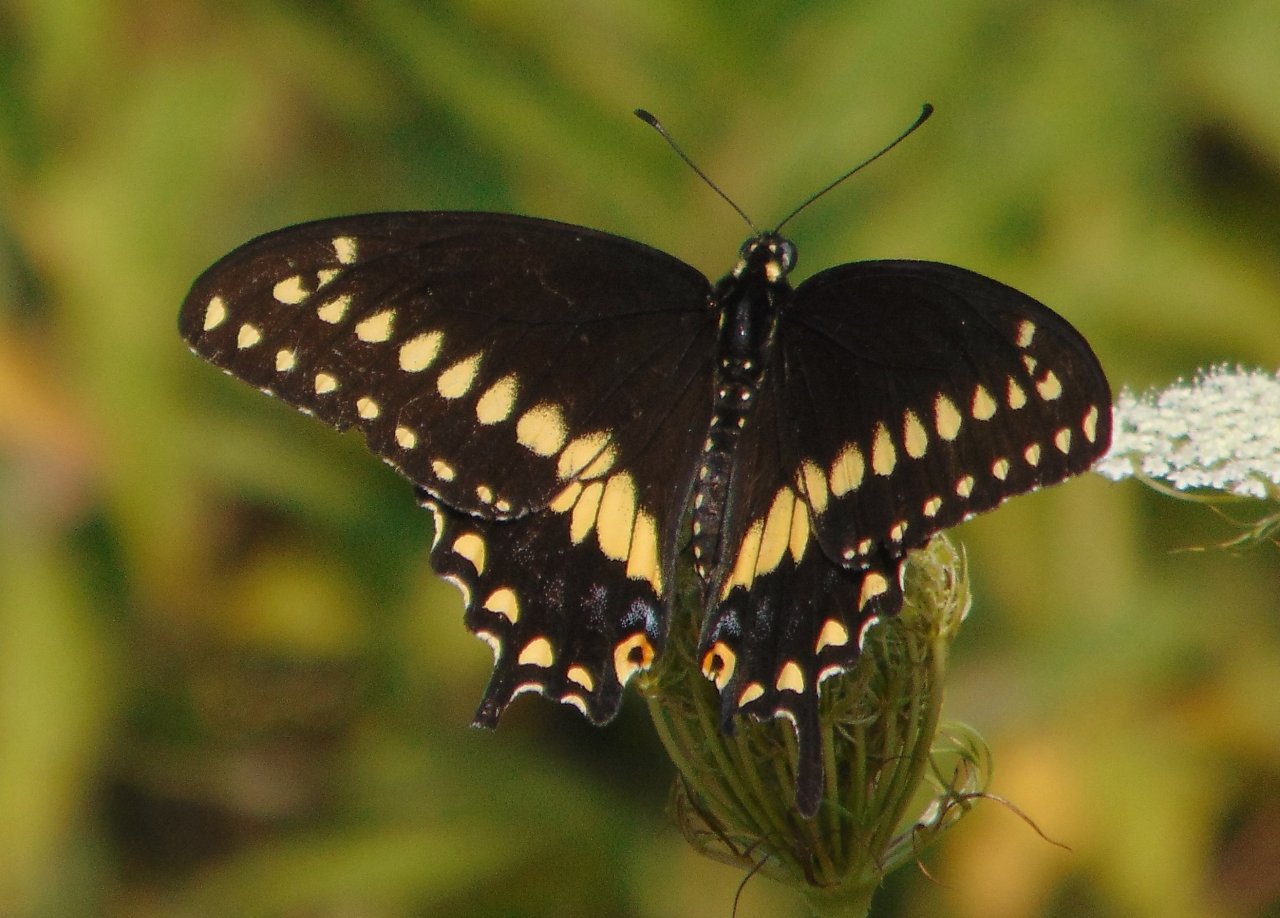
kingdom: Animalia
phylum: Arthropoda
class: Insecta
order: Lepidoptera
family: Papilionidae
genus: Papilio
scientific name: Papilio polyxenes
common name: Black Swallowtail
